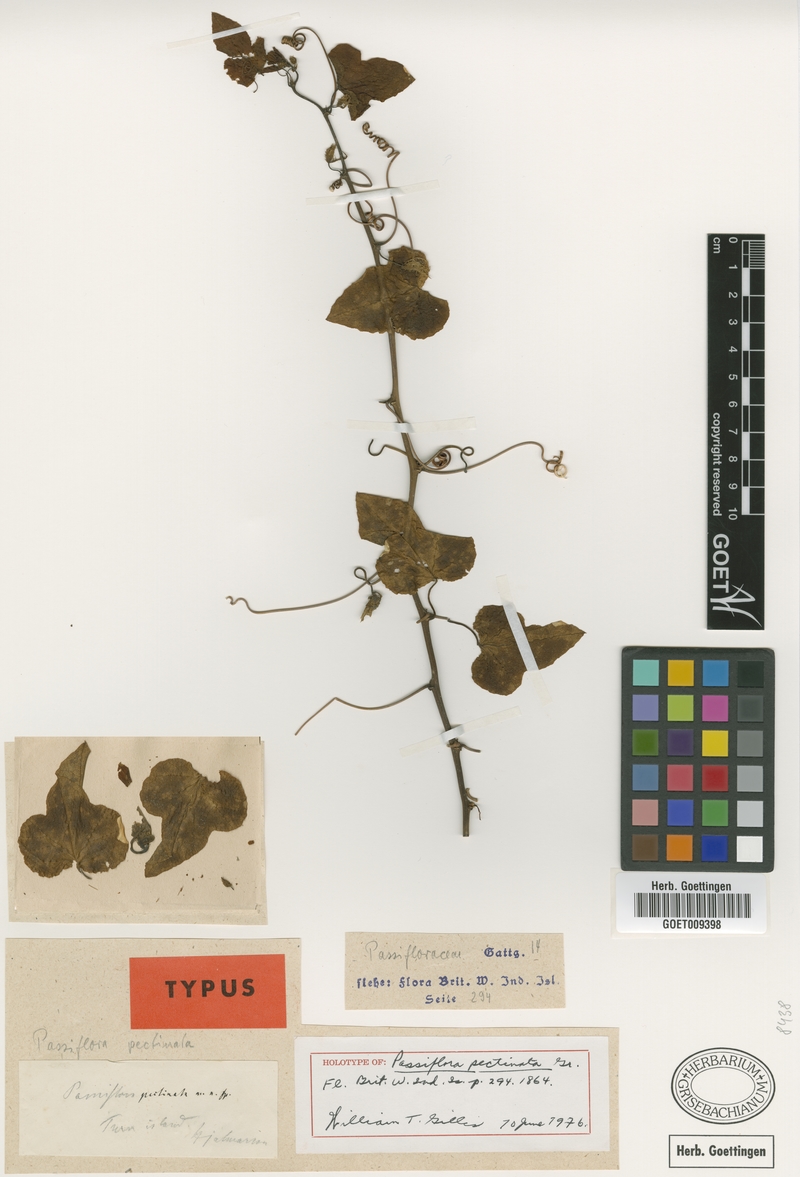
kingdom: Plantae
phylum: Tracheophyta
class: Magnoliopsida
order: Malpighiales
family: Passifloraceae
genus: Passiflora
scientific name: Passiflora pectinata
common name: White passionflower
